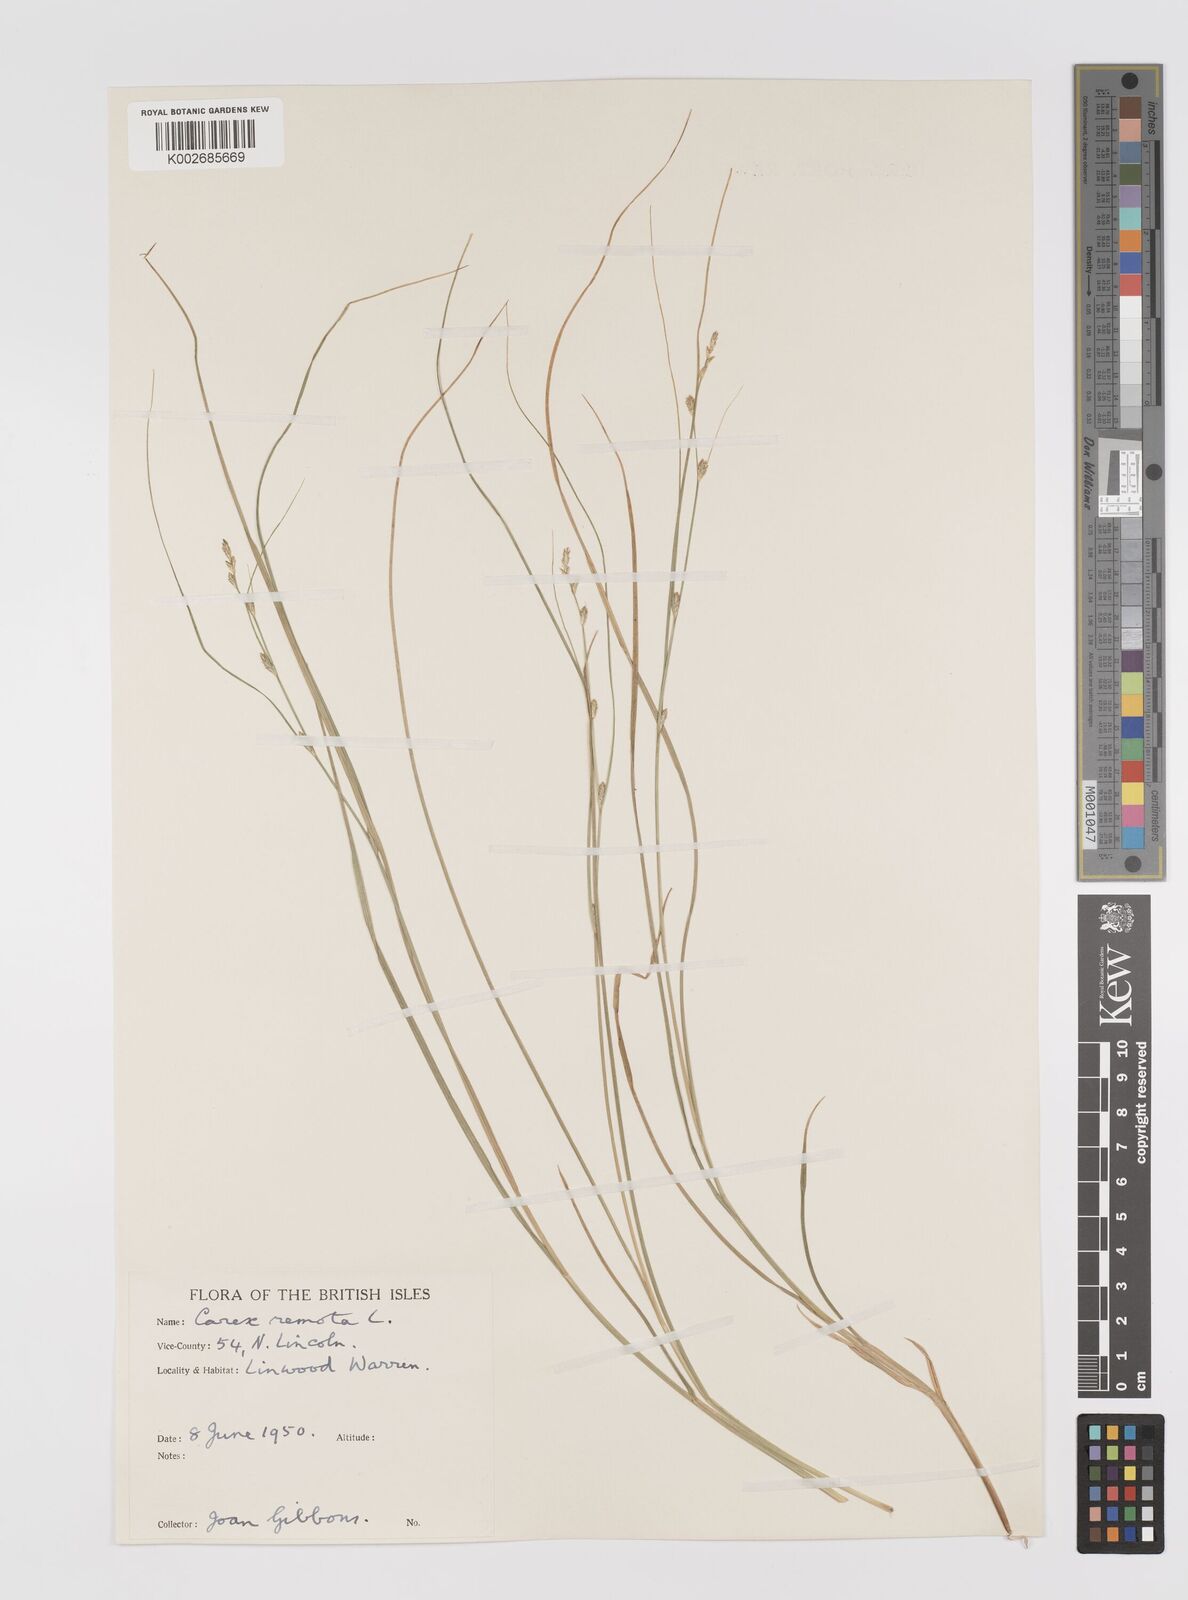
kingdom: Plantae
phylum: Tracheophyta
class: Liliopsida
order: Poales
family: Cyperaceae
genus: Carex
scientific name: Carex remota
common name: Remote sedge
